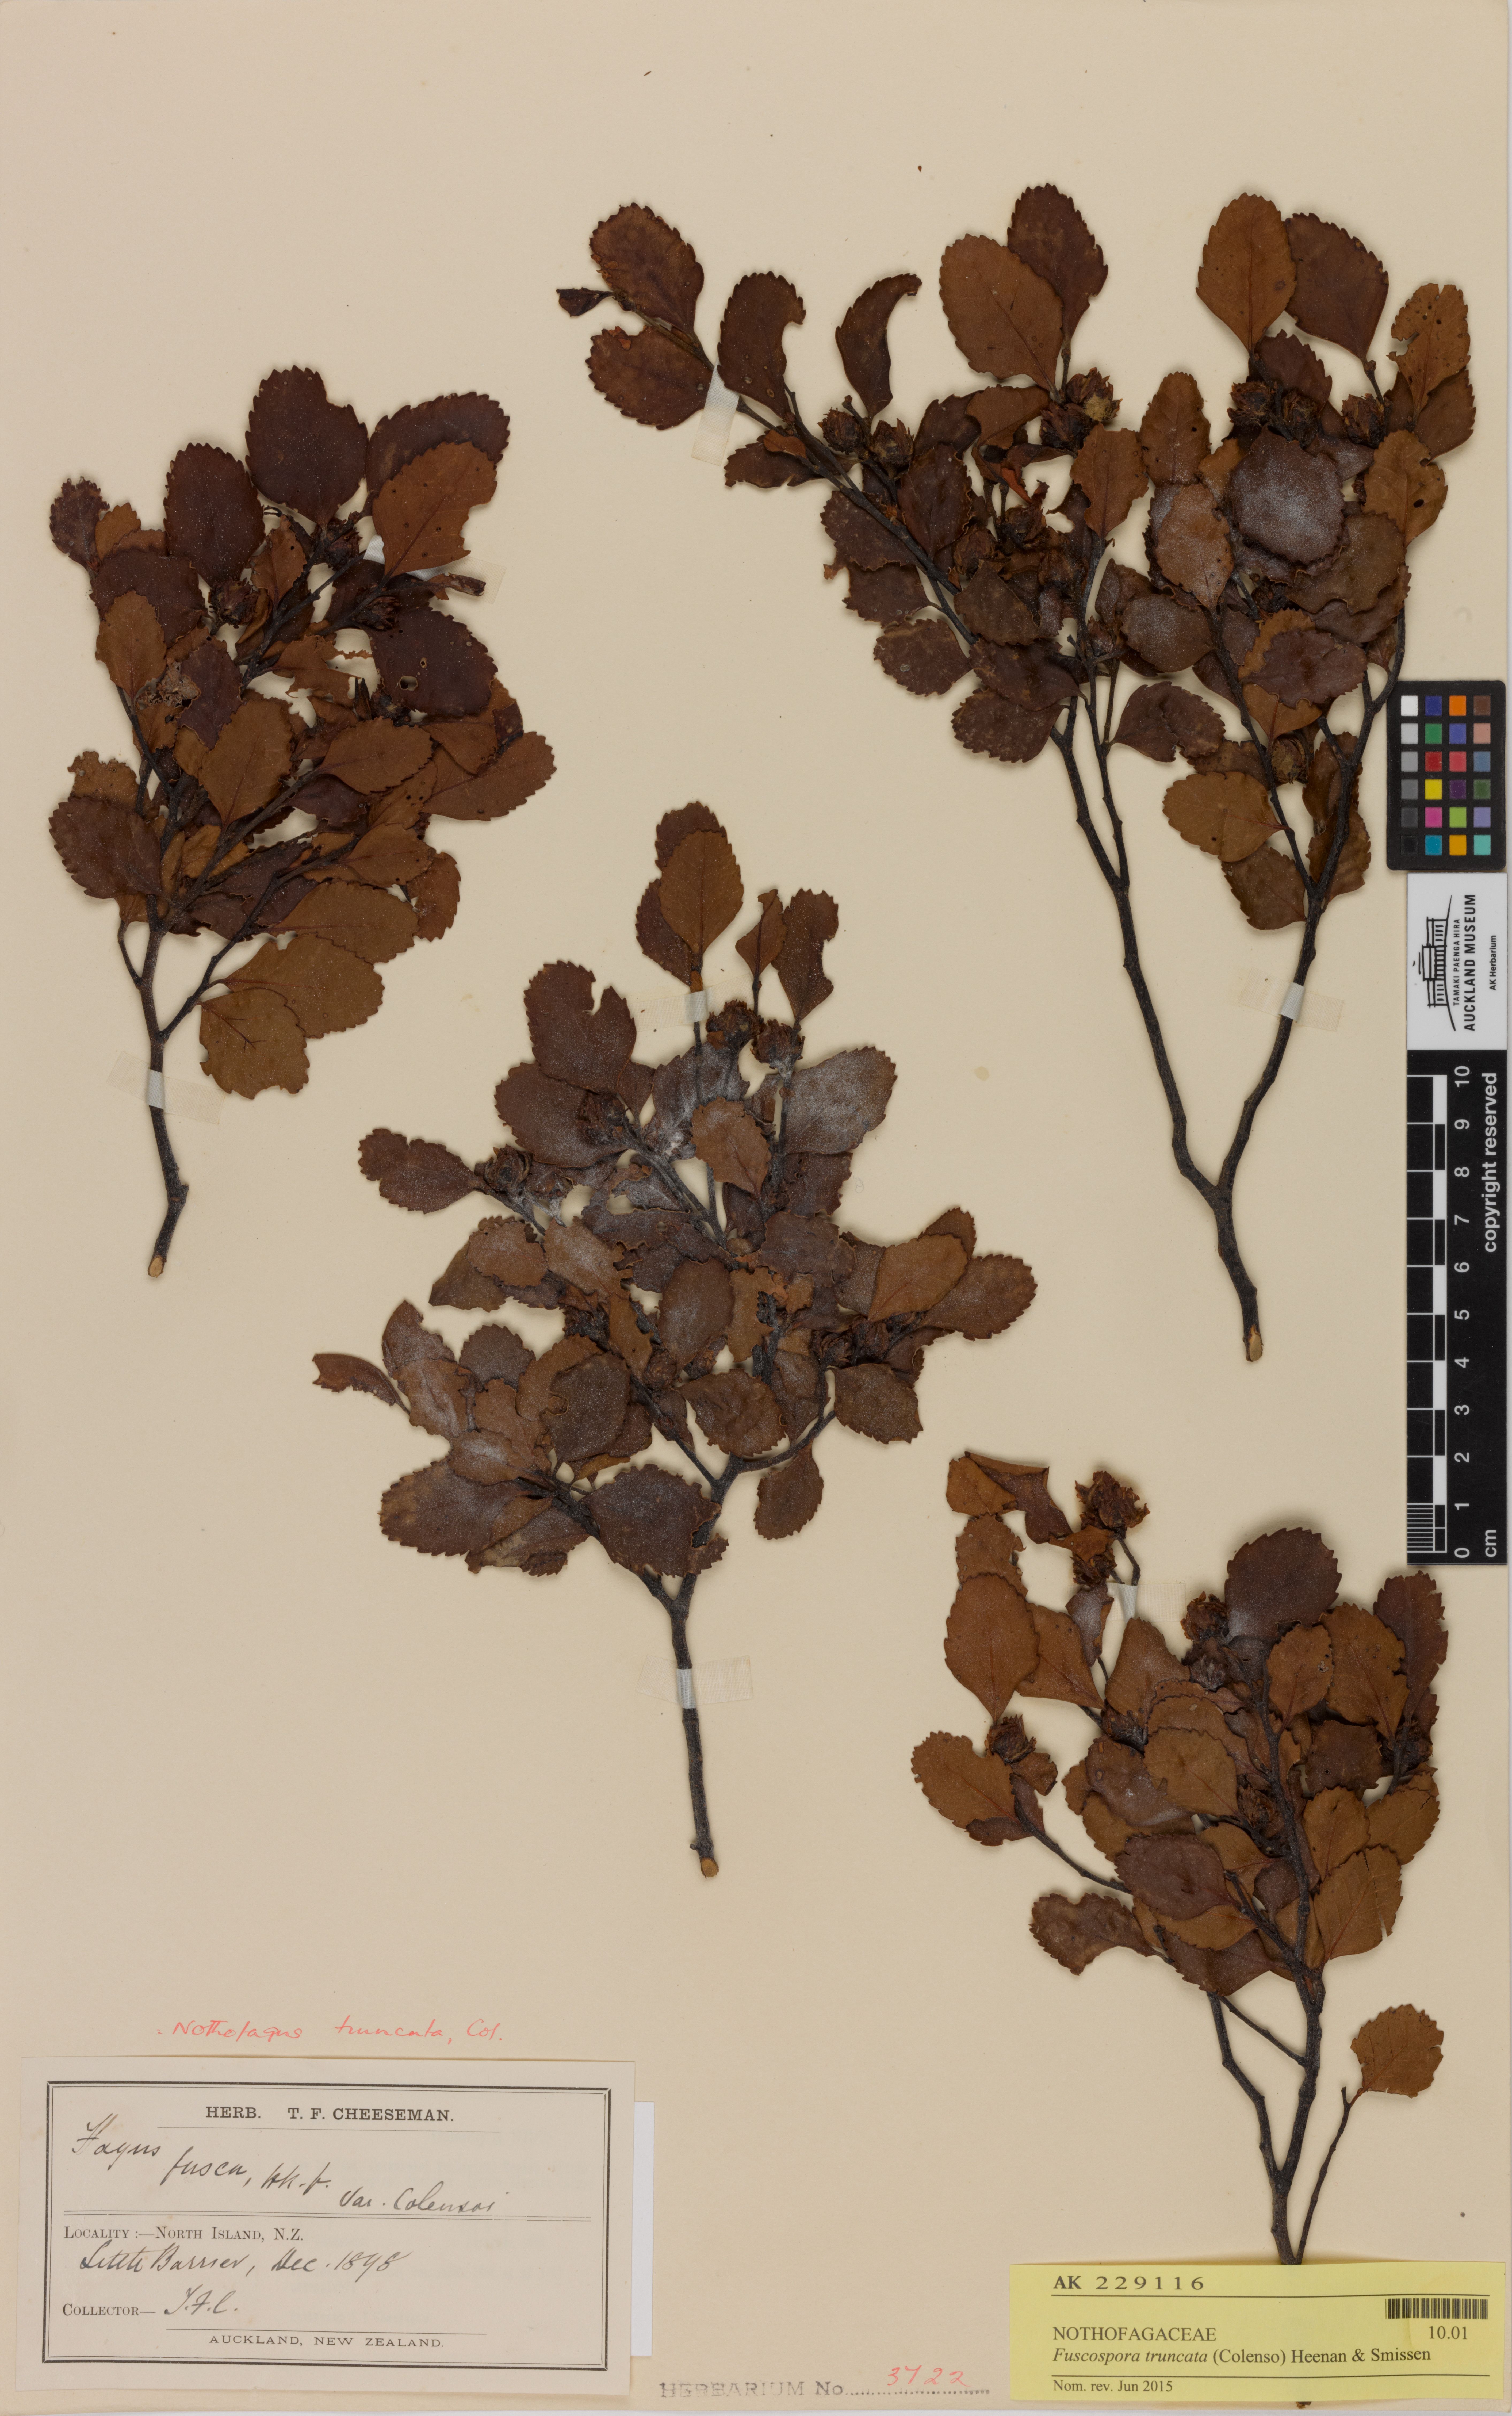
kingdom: Plantae
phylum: Tracheophyta
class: Magnoliopsida
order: Fagales
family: Nothofagaceae
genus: Nothofagus
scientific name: Nothofagus truncata
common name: Hard beech
